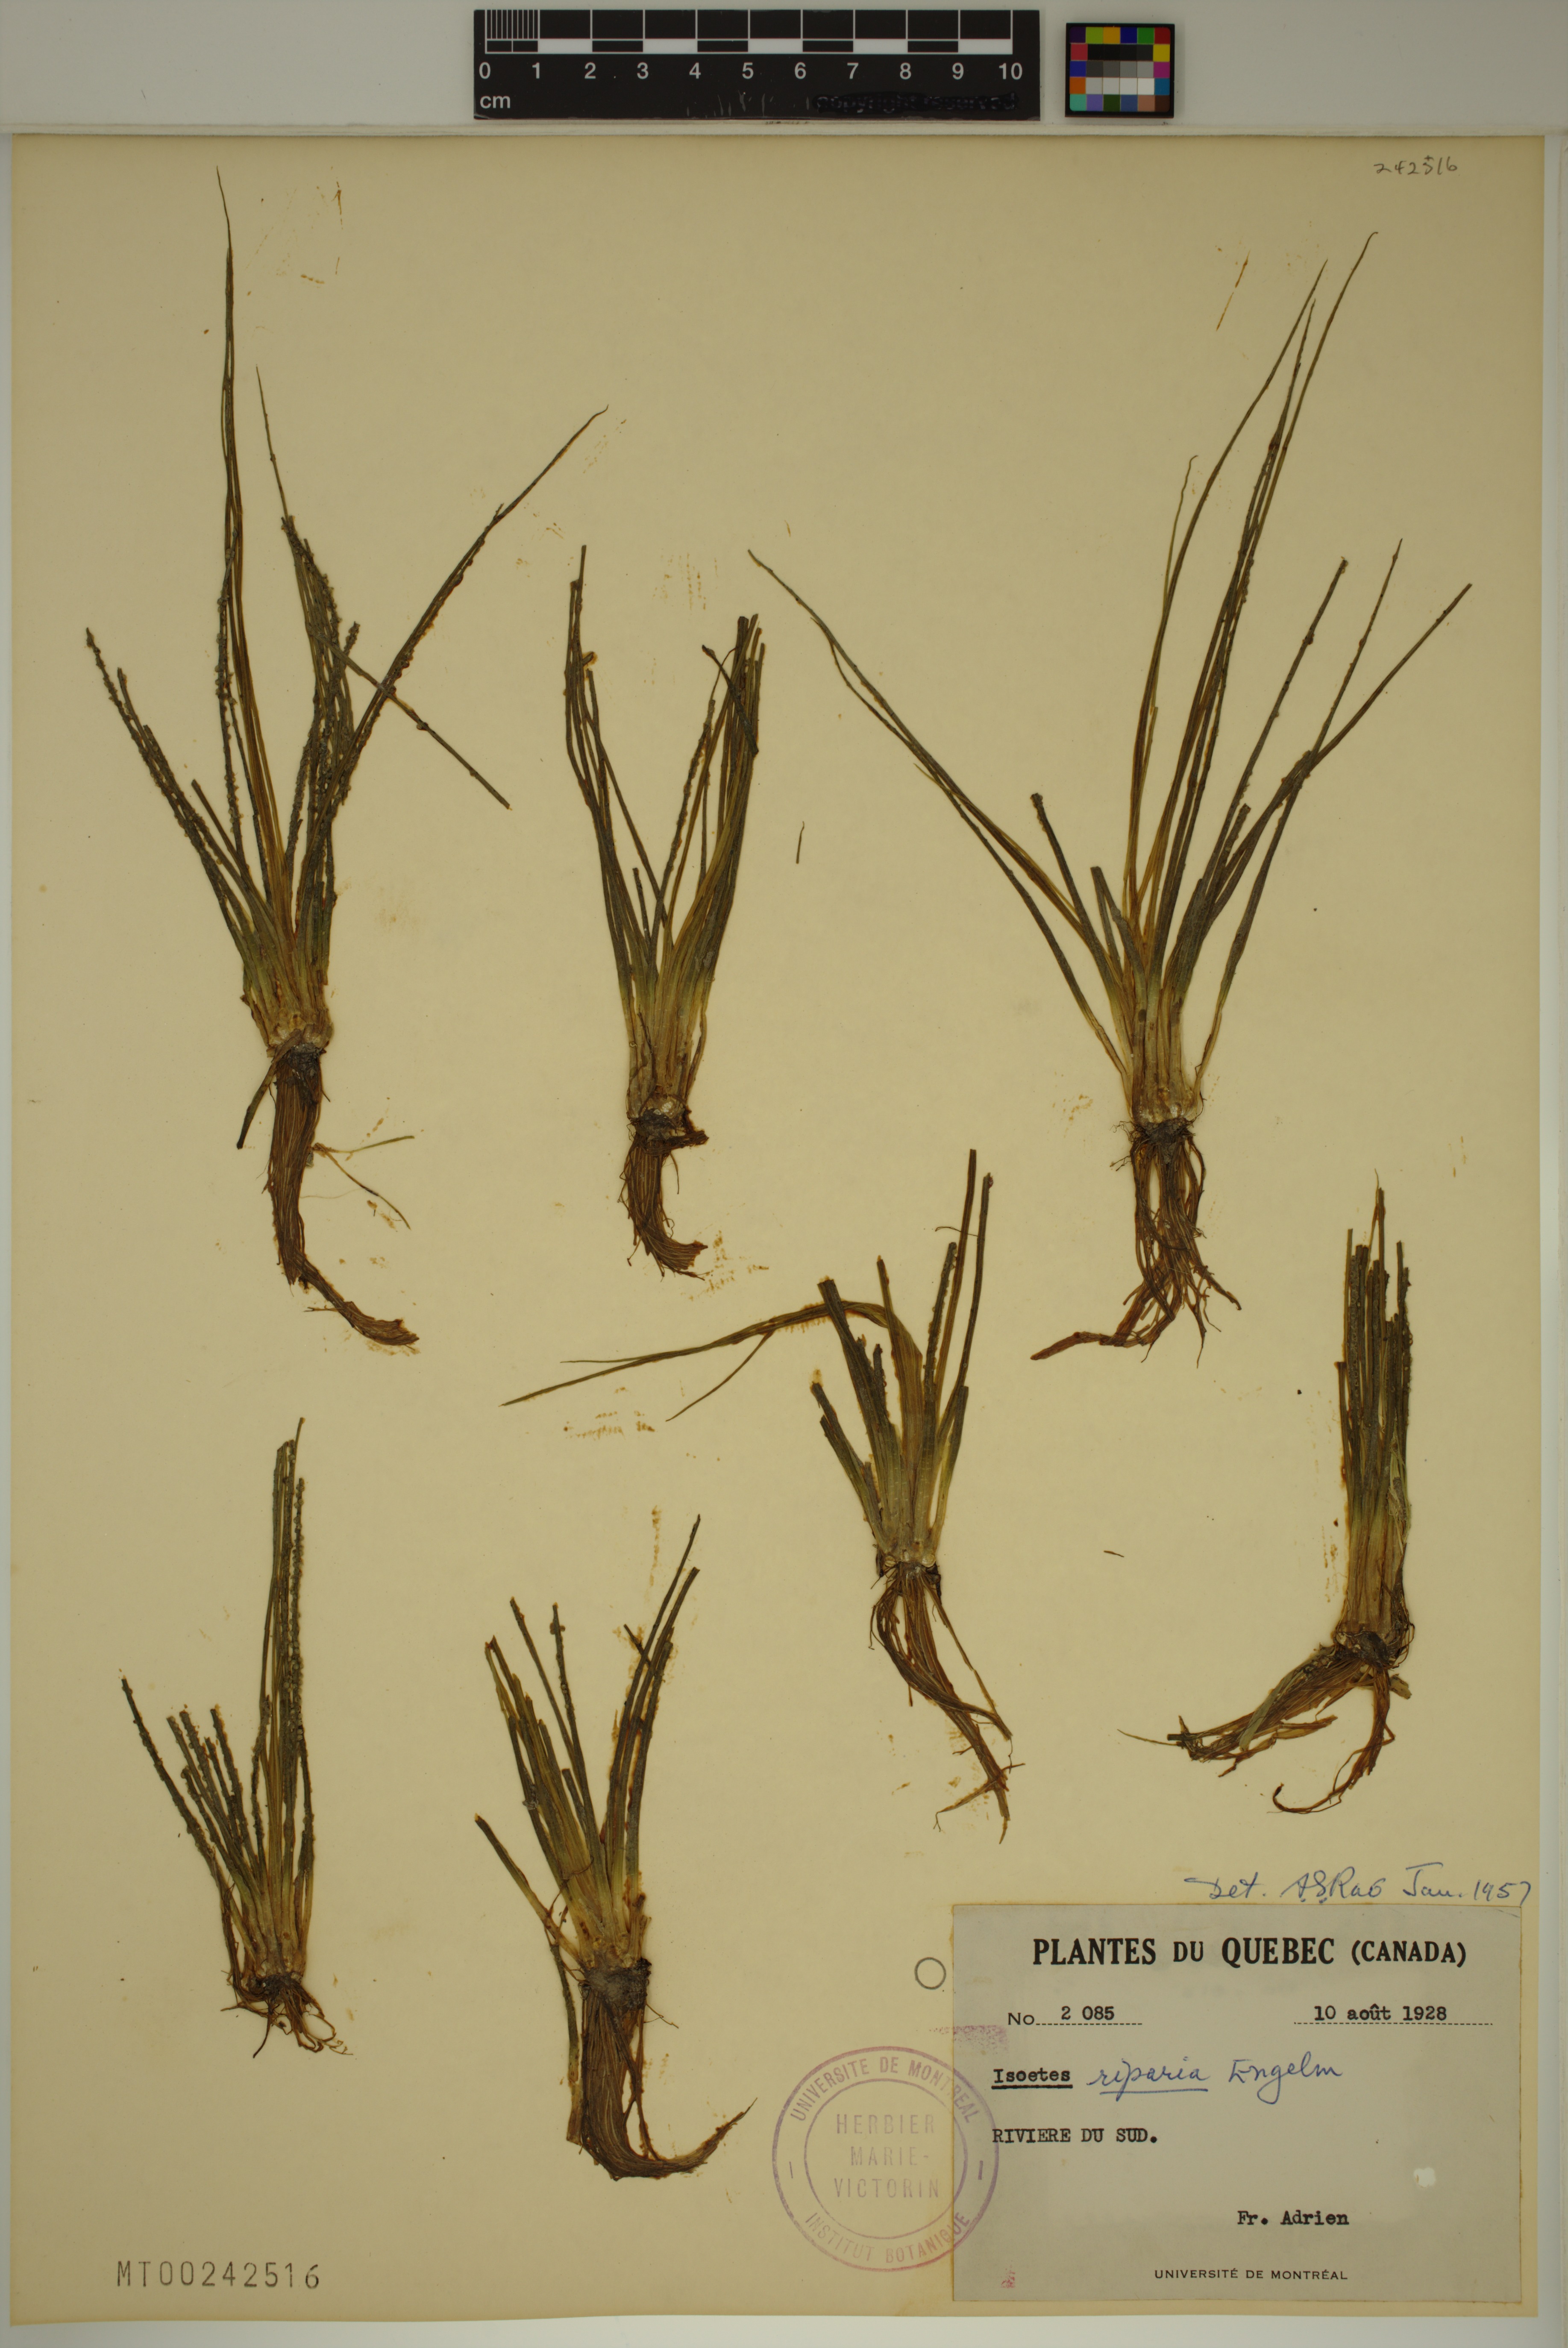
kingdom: Plantae
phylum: Tracheophyta
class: Lycopodiopsida
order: Isoetales
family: Isoetaceae
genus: Isoetes
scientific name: Isoetes septentrionalis
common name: Northern quillwort
